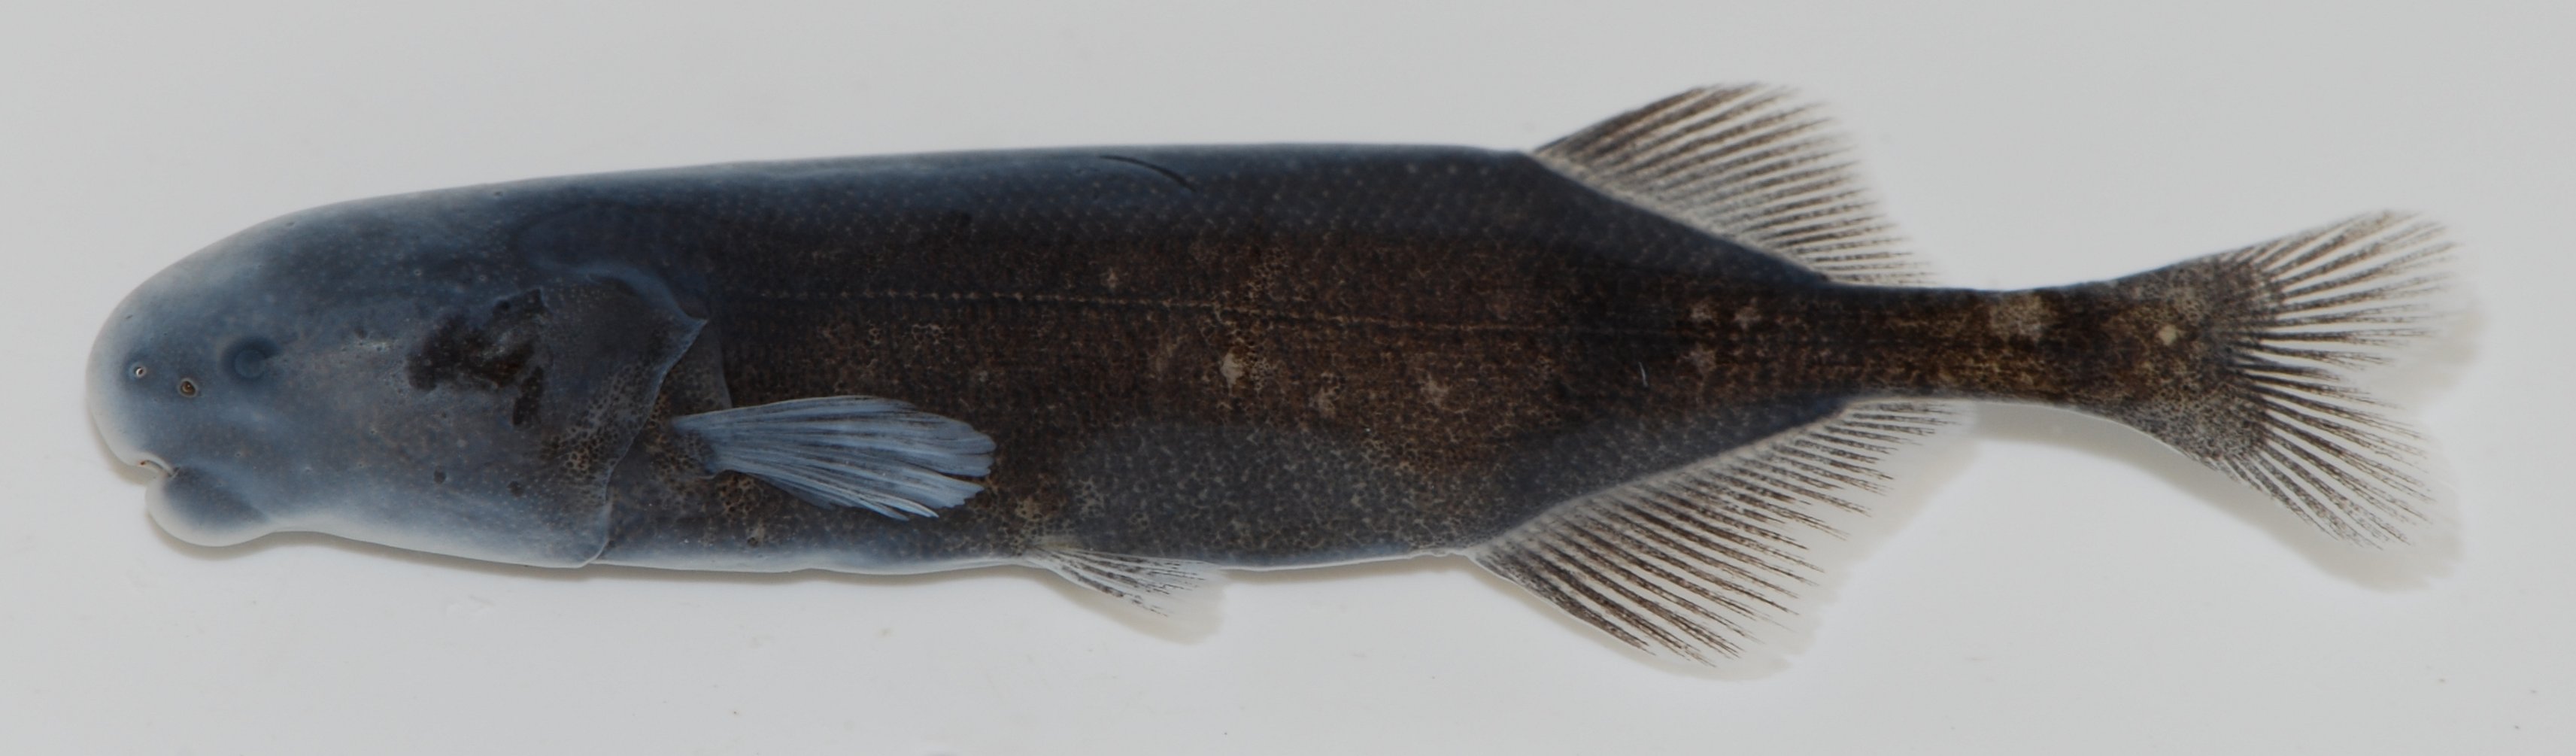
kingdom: Animalia
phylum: Chordata
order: Osteoglossiformes
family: Mormyridae
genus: Brienomyrus
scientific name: Brienomyrus
